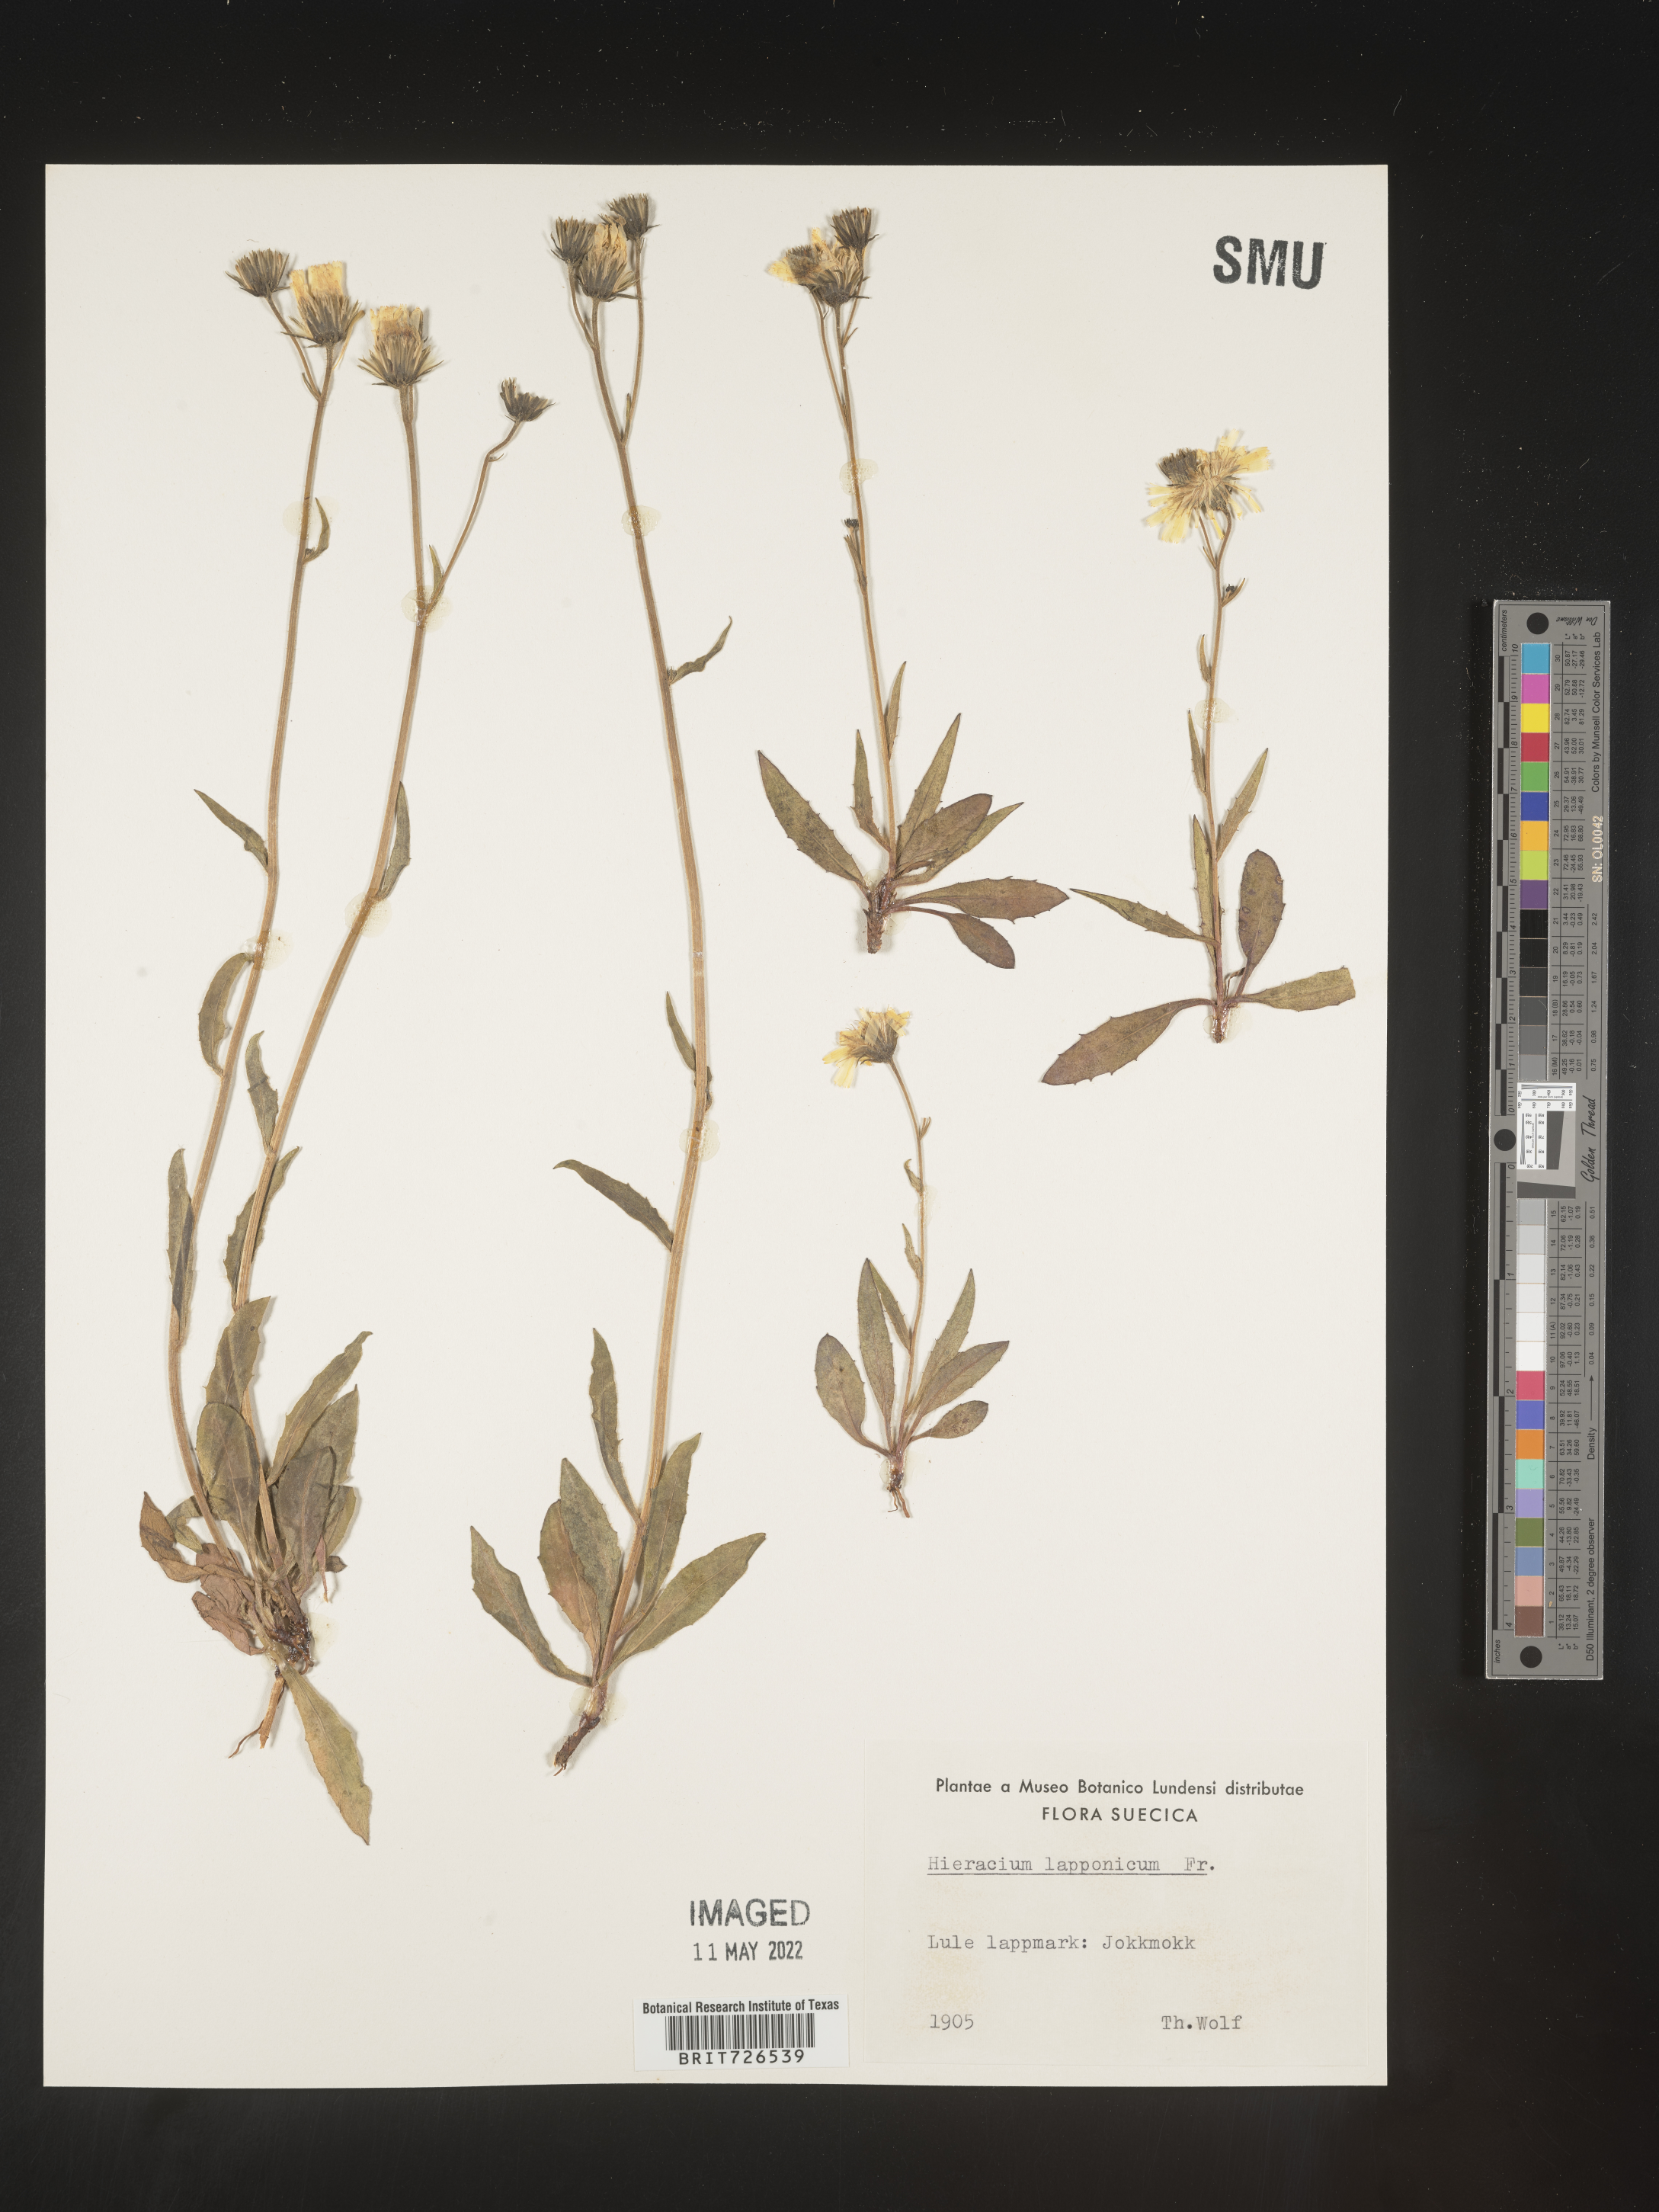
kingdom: Plantae
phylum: Tracheophyta
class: Magnoliopsida
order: Asterales
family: Asteraceae
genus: Hieracium
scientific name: Hieracium
